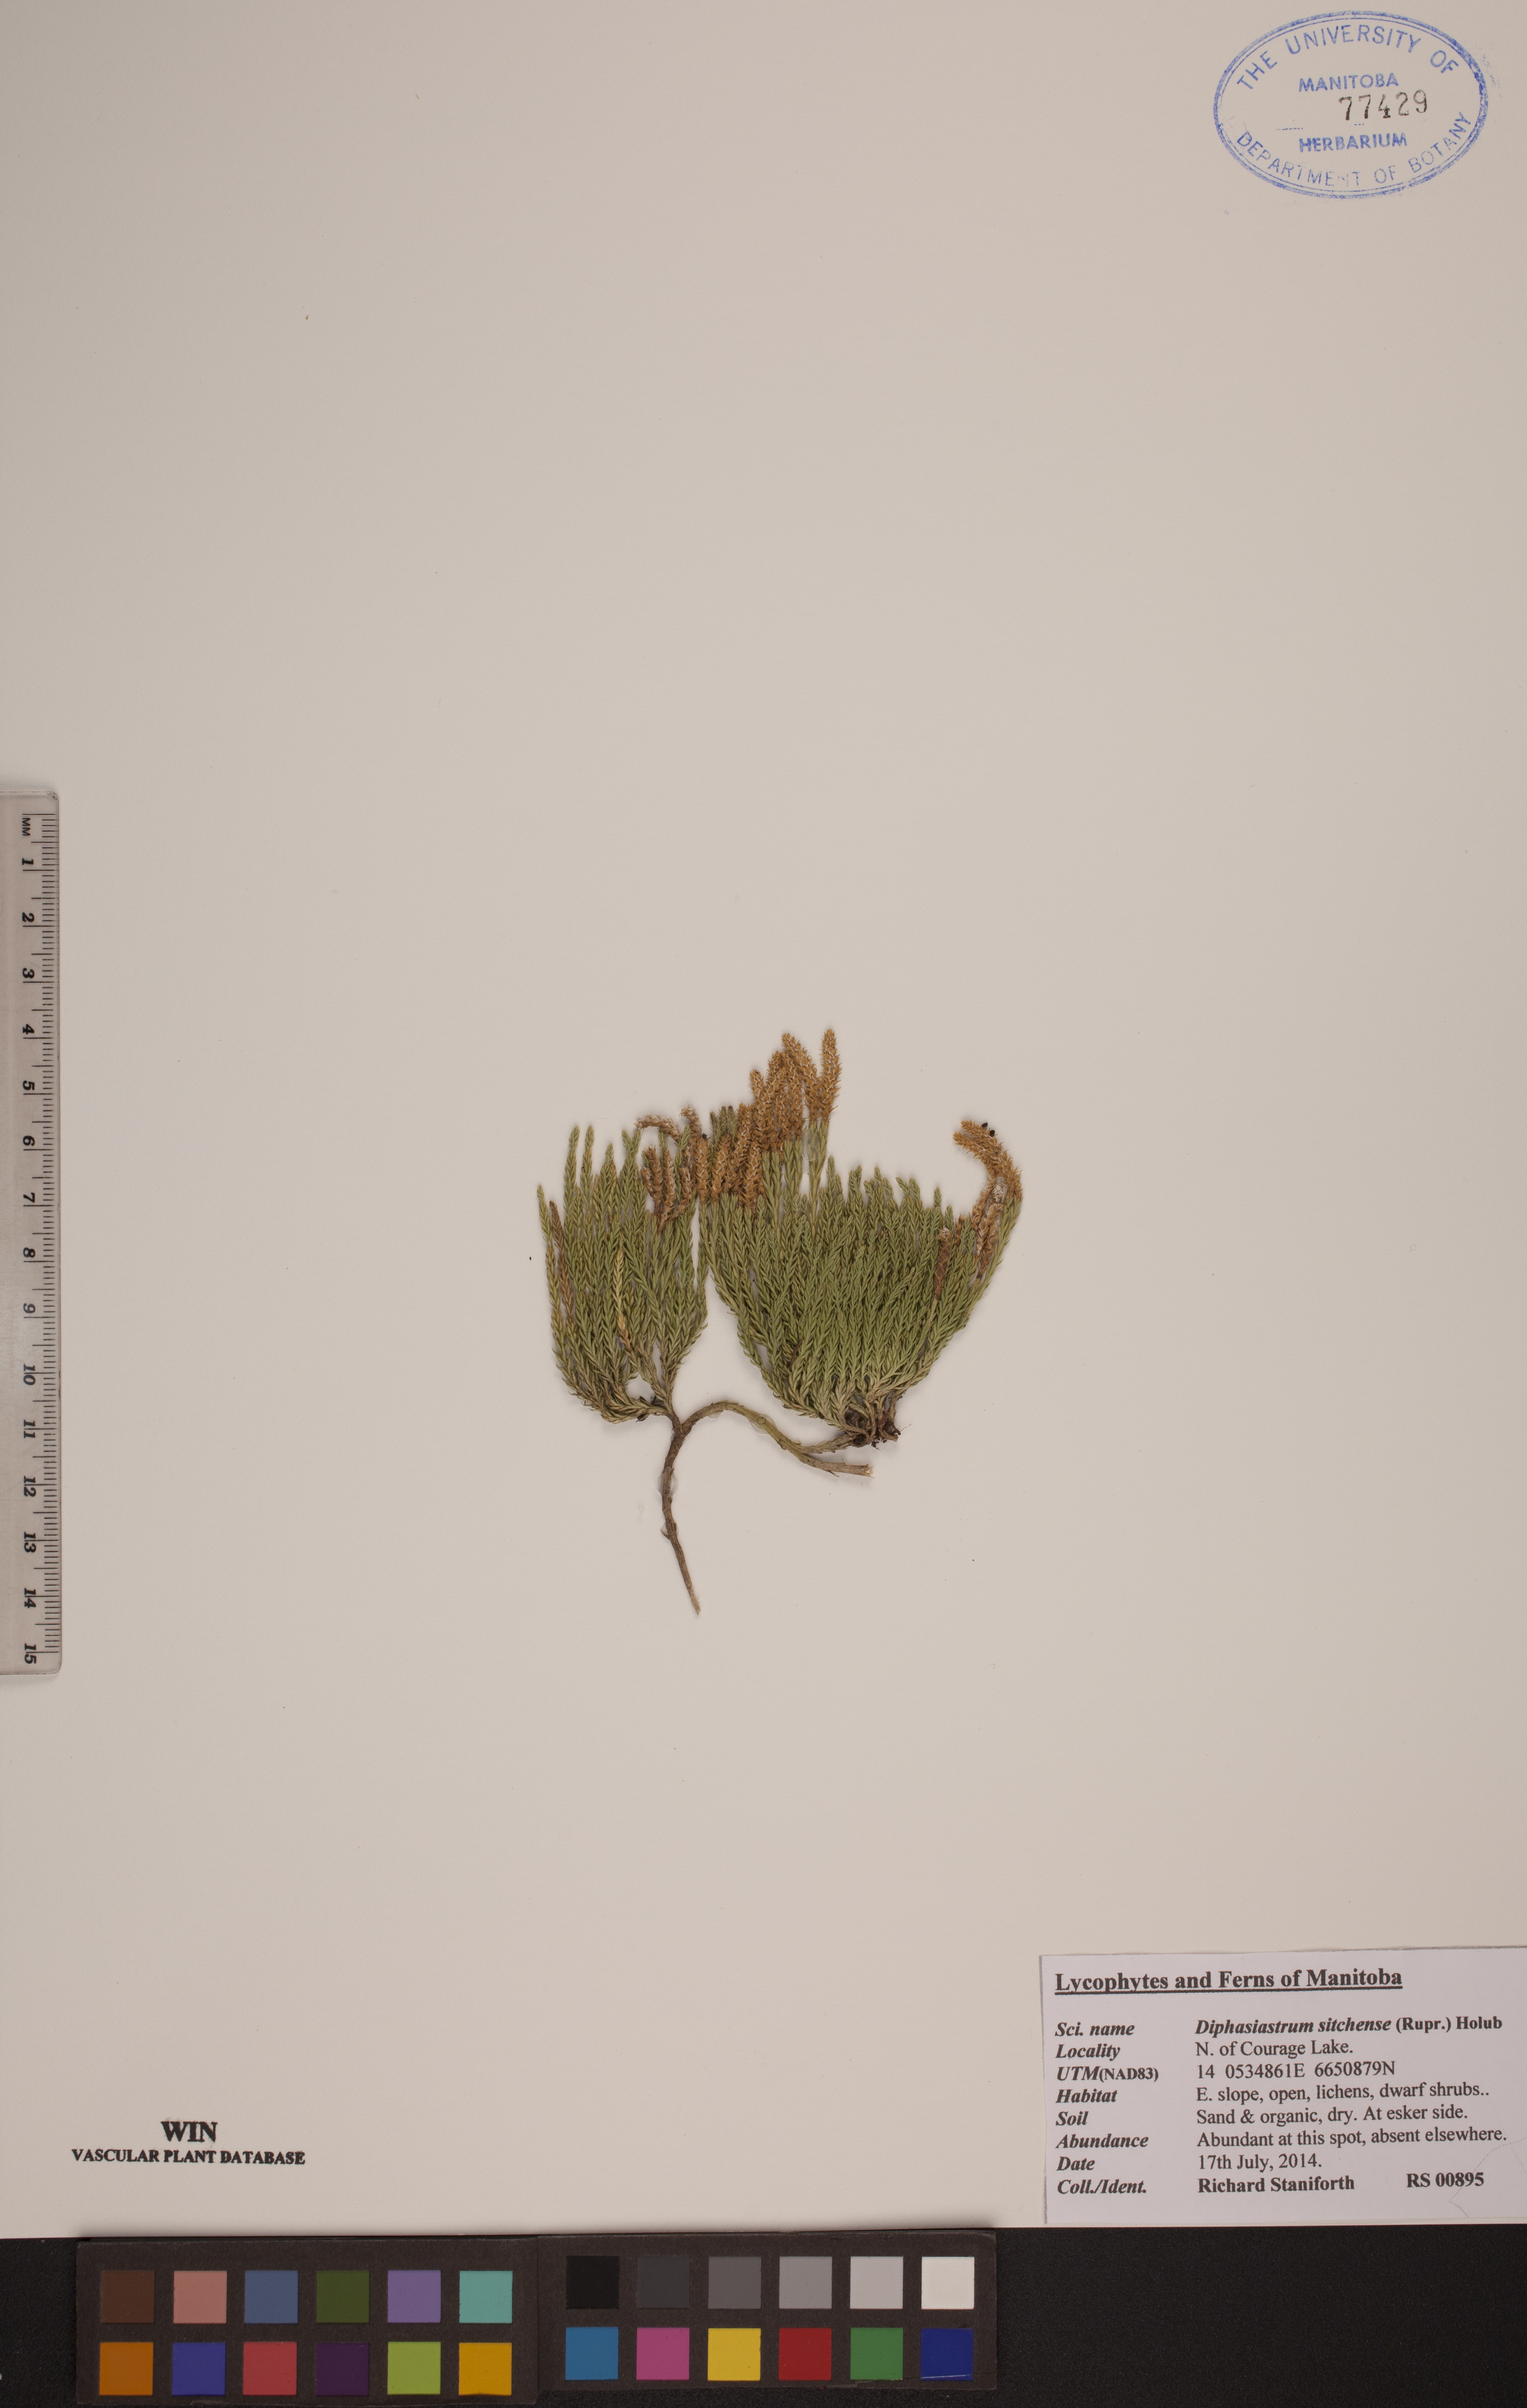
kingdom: Plantae
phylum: Tracheophyta
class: Lycopodiopsida
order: Lycopodiales
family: Lycopodiaceae
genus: Diphasiastrum
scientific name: Diphasiastrum sitchense
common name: Alaska clubmoss
